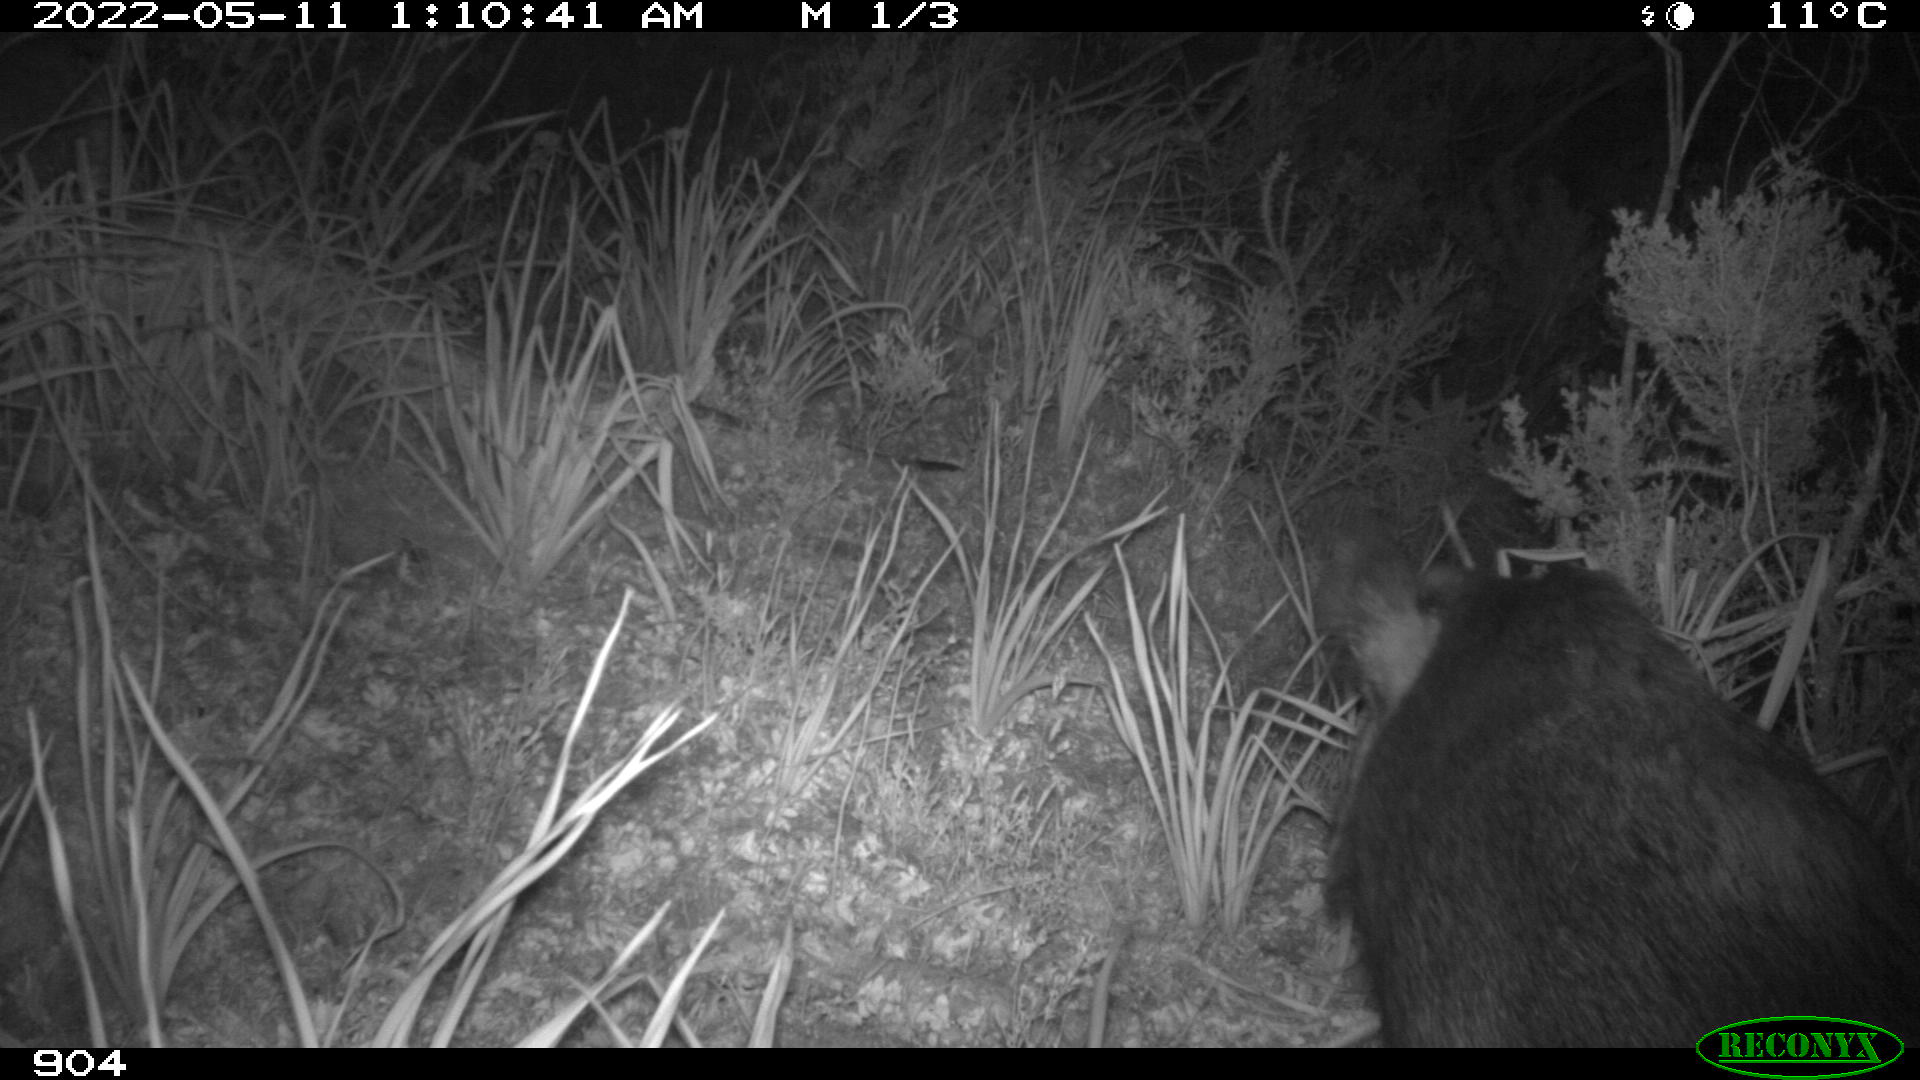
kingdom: Animalia
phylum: Chordata
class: Mammalia
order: Artiodactyla
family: Suidae
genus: Sus
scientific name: Sus scrofa
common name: Wild boar
